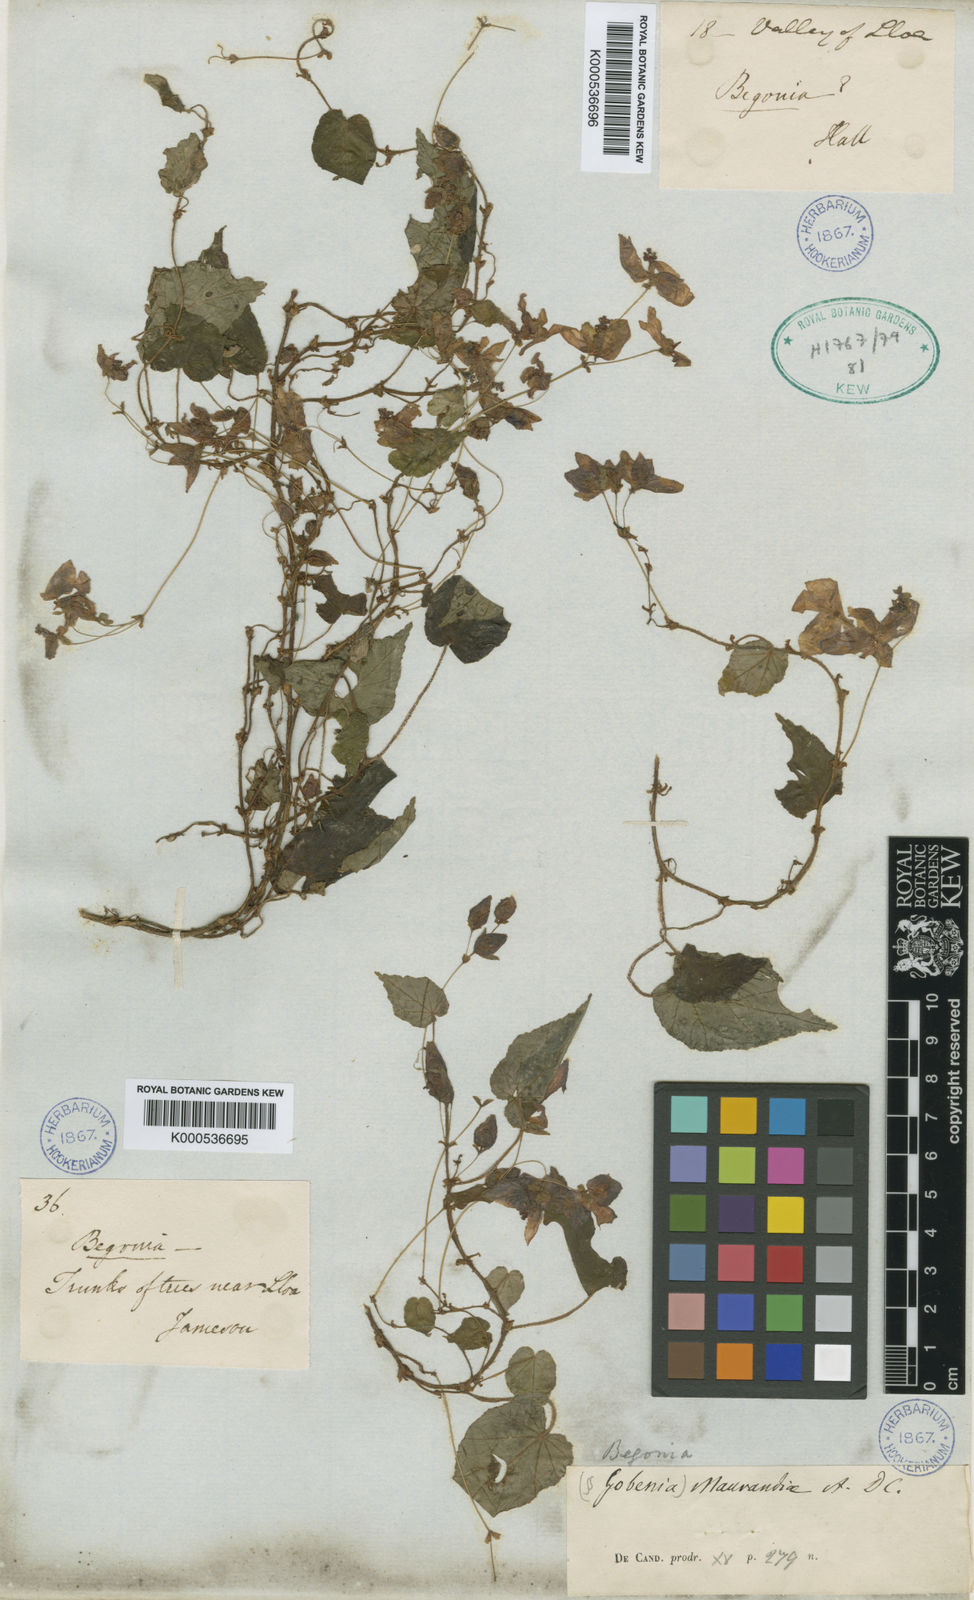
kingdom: Plantae
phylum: Tracheophyta
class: Magnoliopsida
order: Cucurbitales
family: Begoniaceae
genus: Begonia
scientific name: Begonia maurandiae
